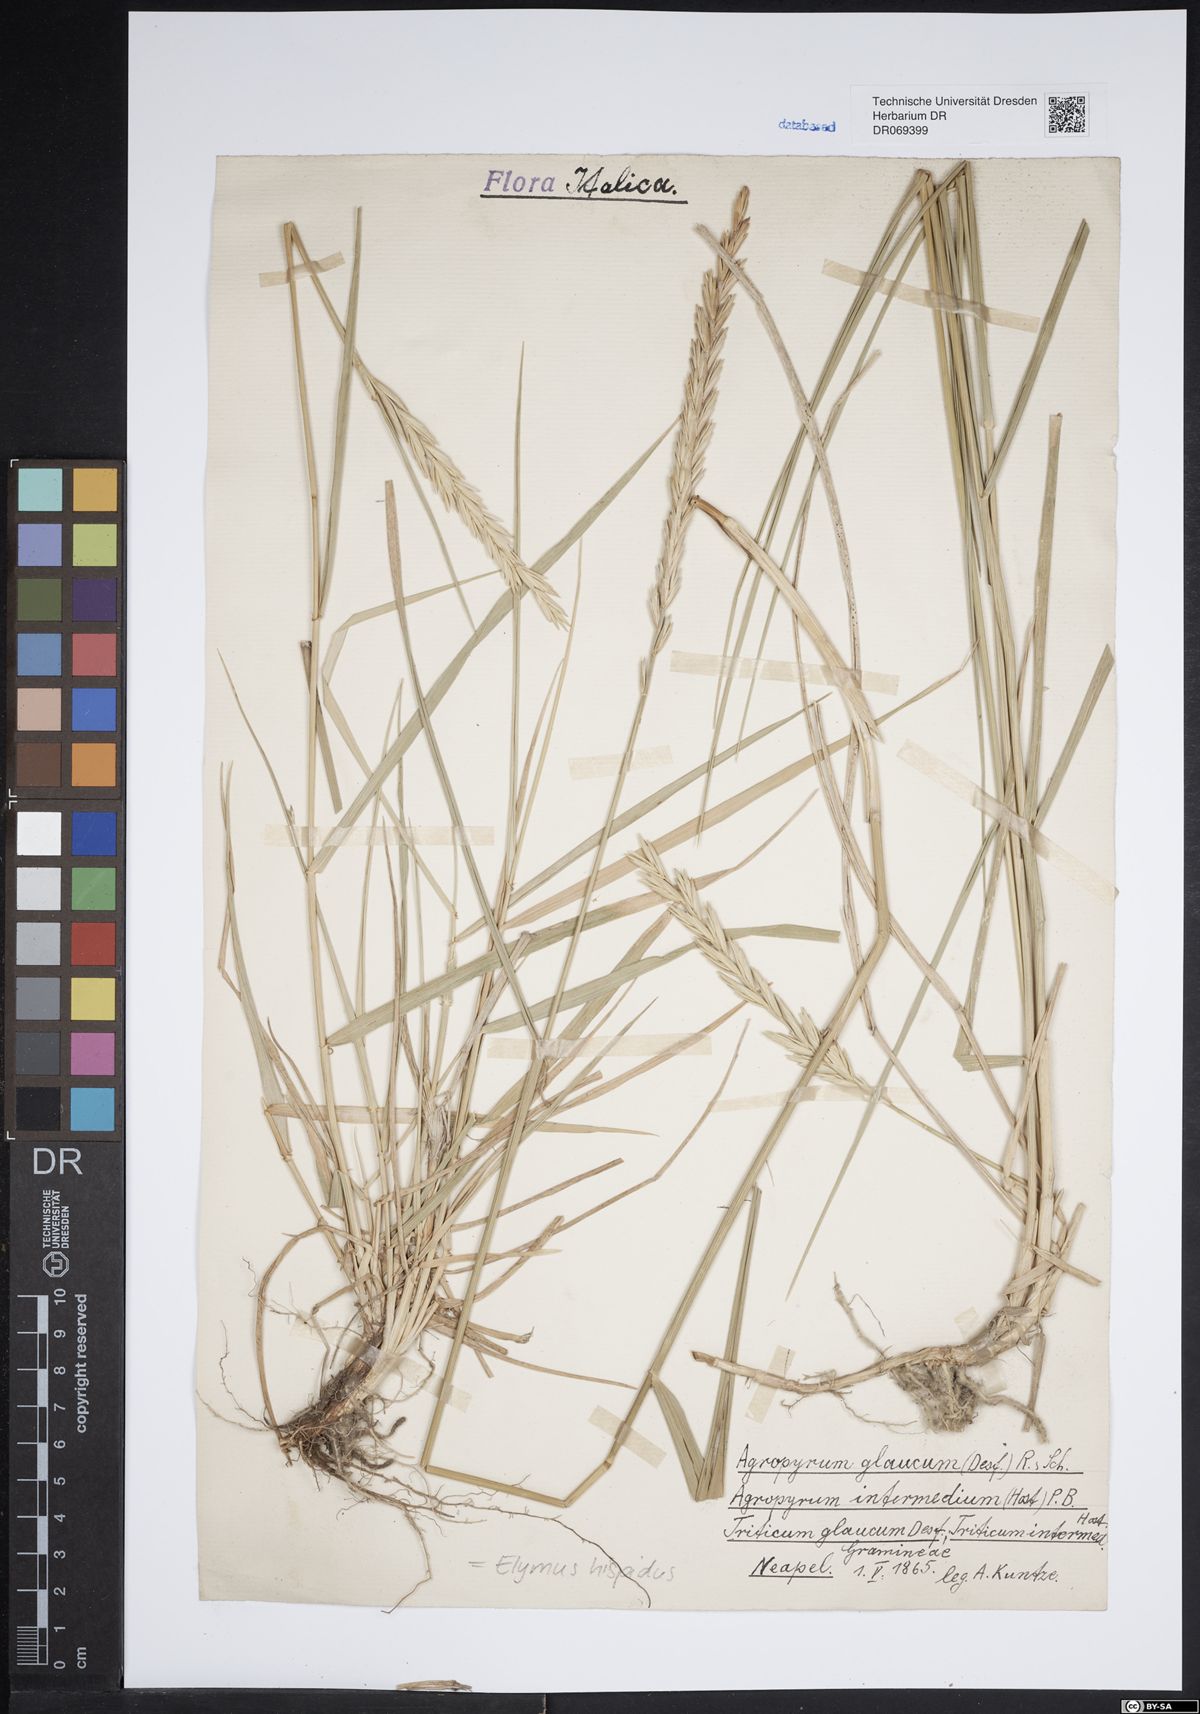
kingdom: Plantae
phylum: Tracheophyta
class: Liliopsida
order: Poales
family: Poaceae
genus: Thinopyrum
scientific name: Thinopyrum intermedium
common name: Intermediate wheatgrass
